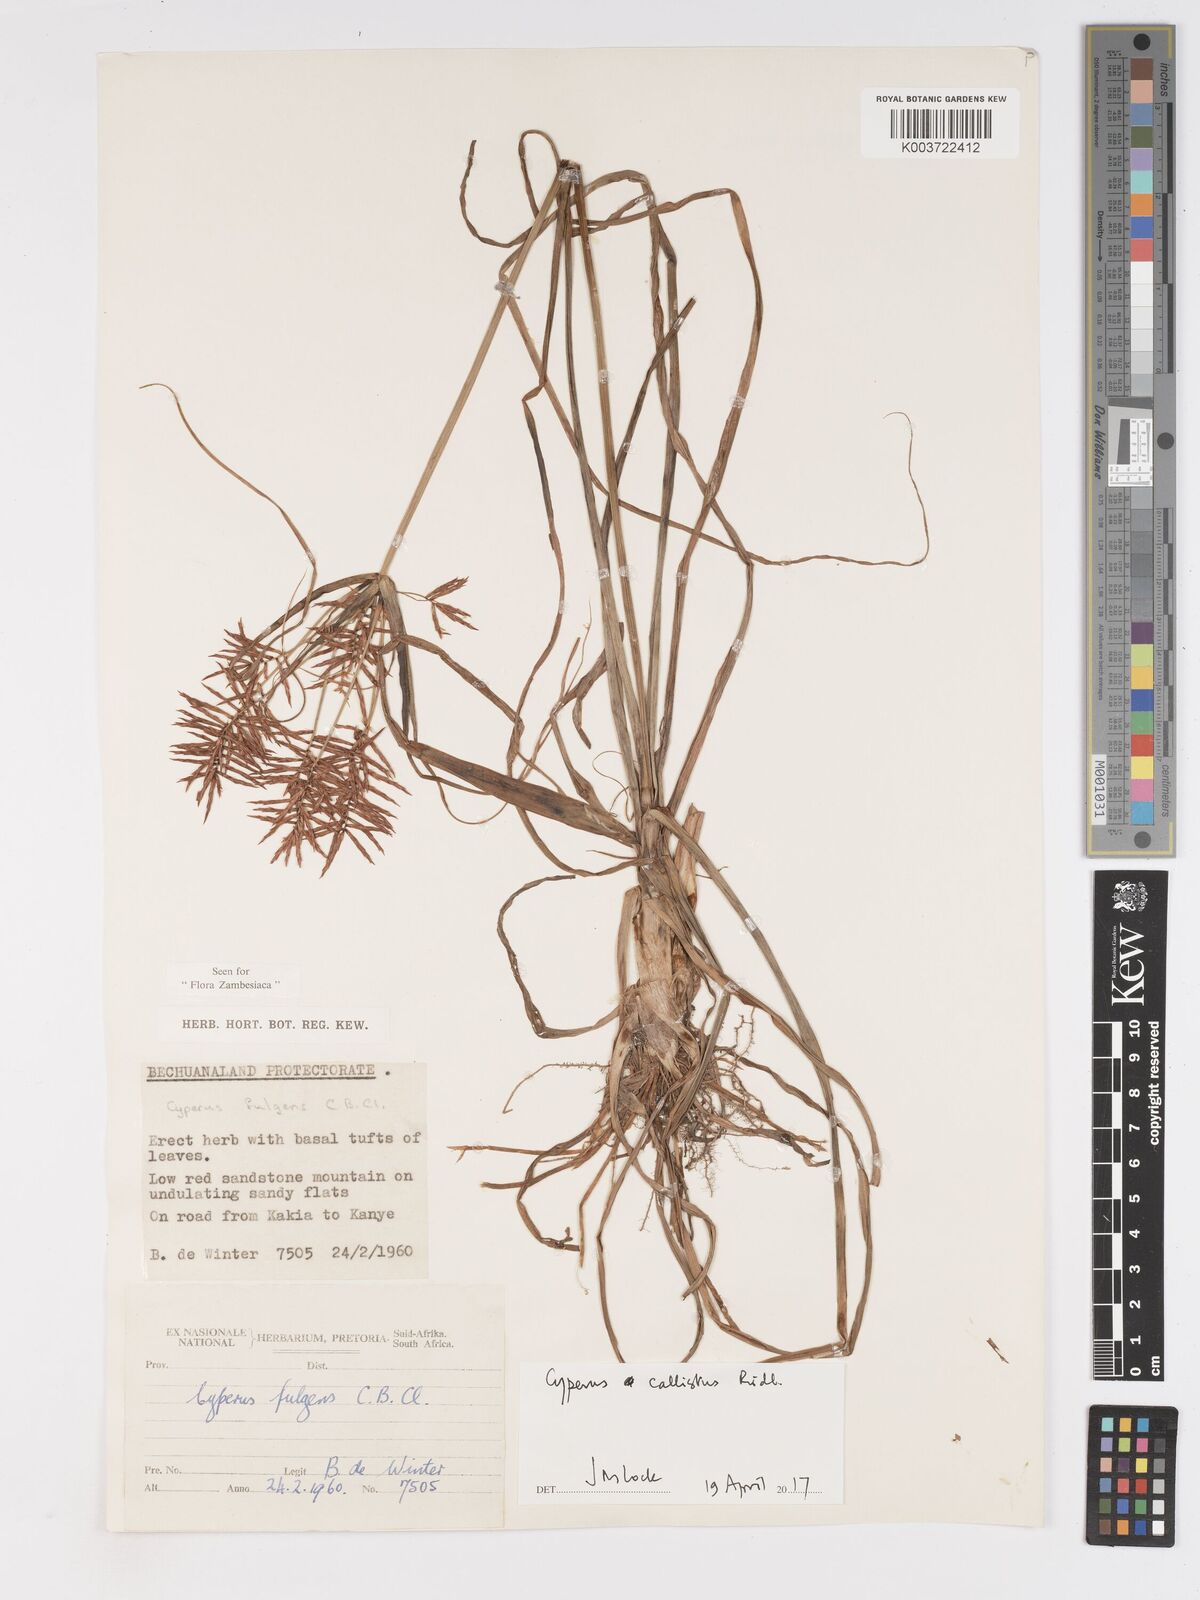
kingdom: Plantae
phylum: Tracheophyta
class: Liliopsida
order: Poales
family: Cyperaceae
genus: Cyperus
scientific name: Cyperus callistus
